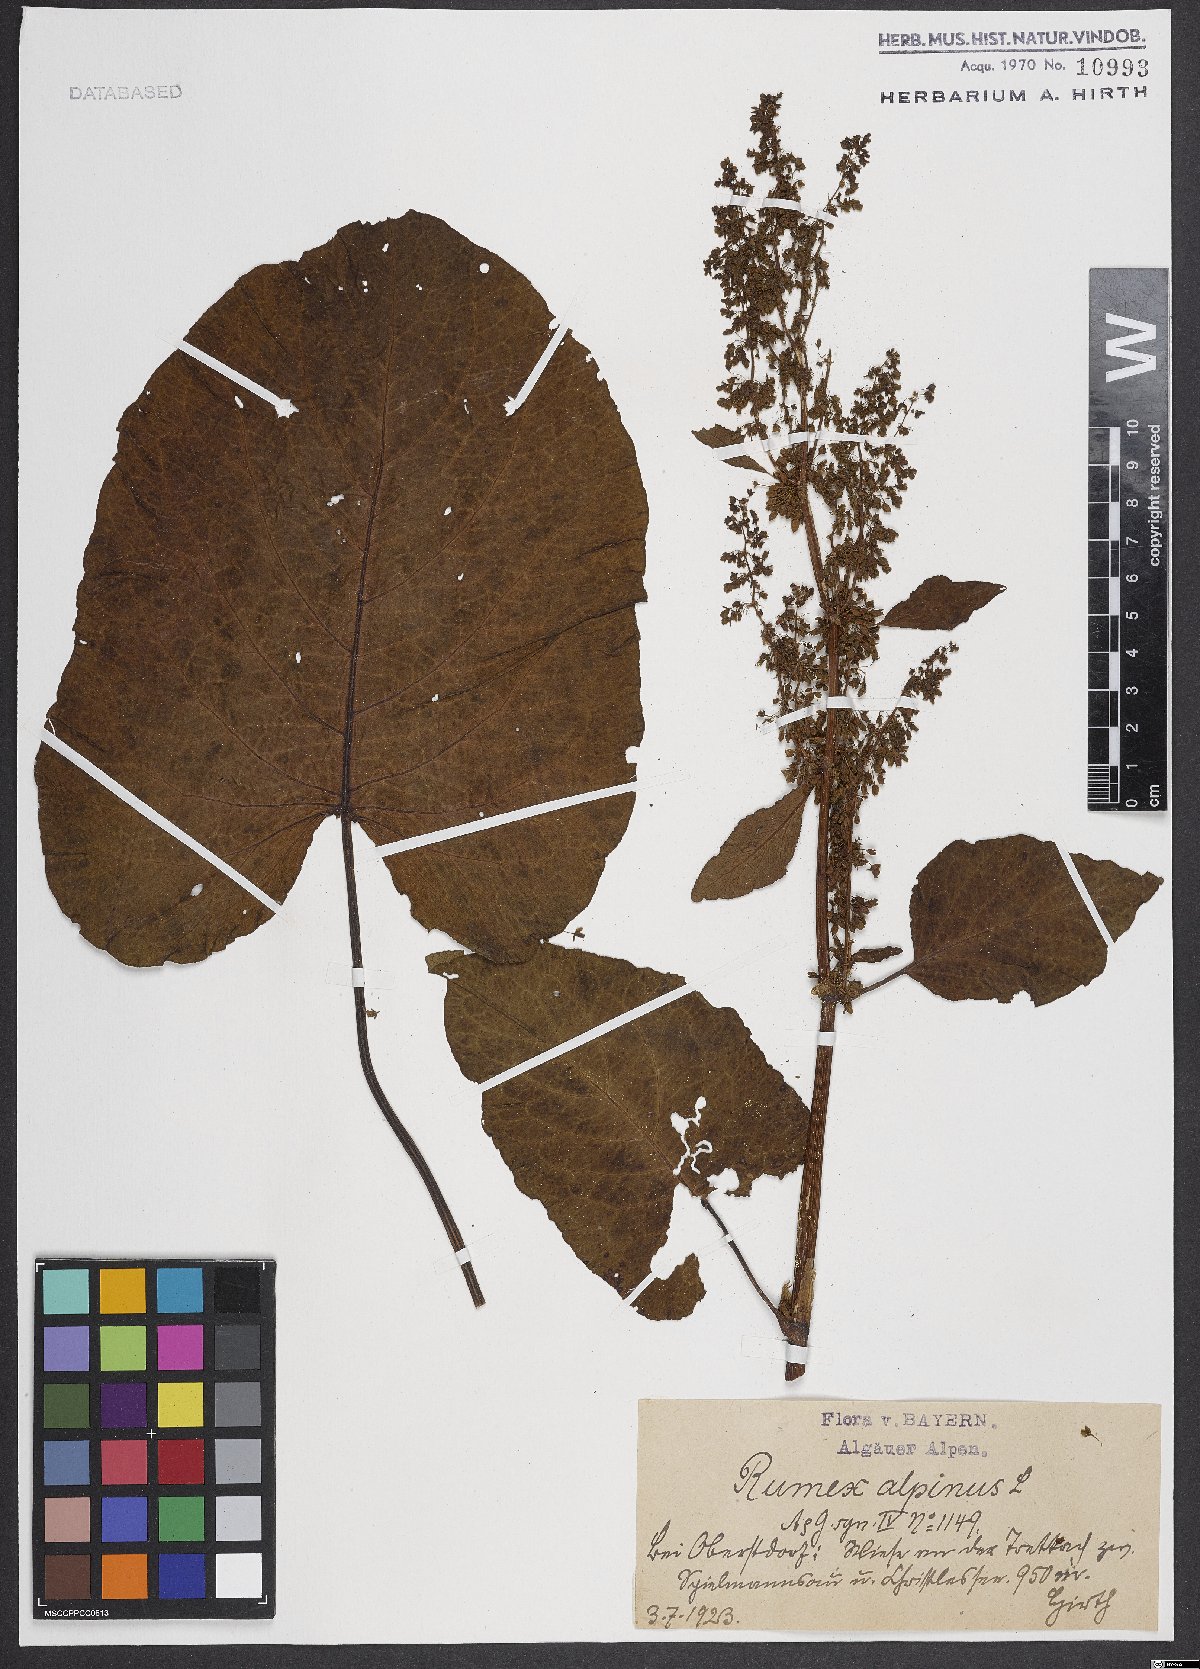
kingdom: Plantae
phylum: Tracheophyta
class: Magnoliopsida
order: Caryophyllales
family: Polygonaceae
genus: Rumex
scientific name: Rumex alpinus
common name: Alpine dock
